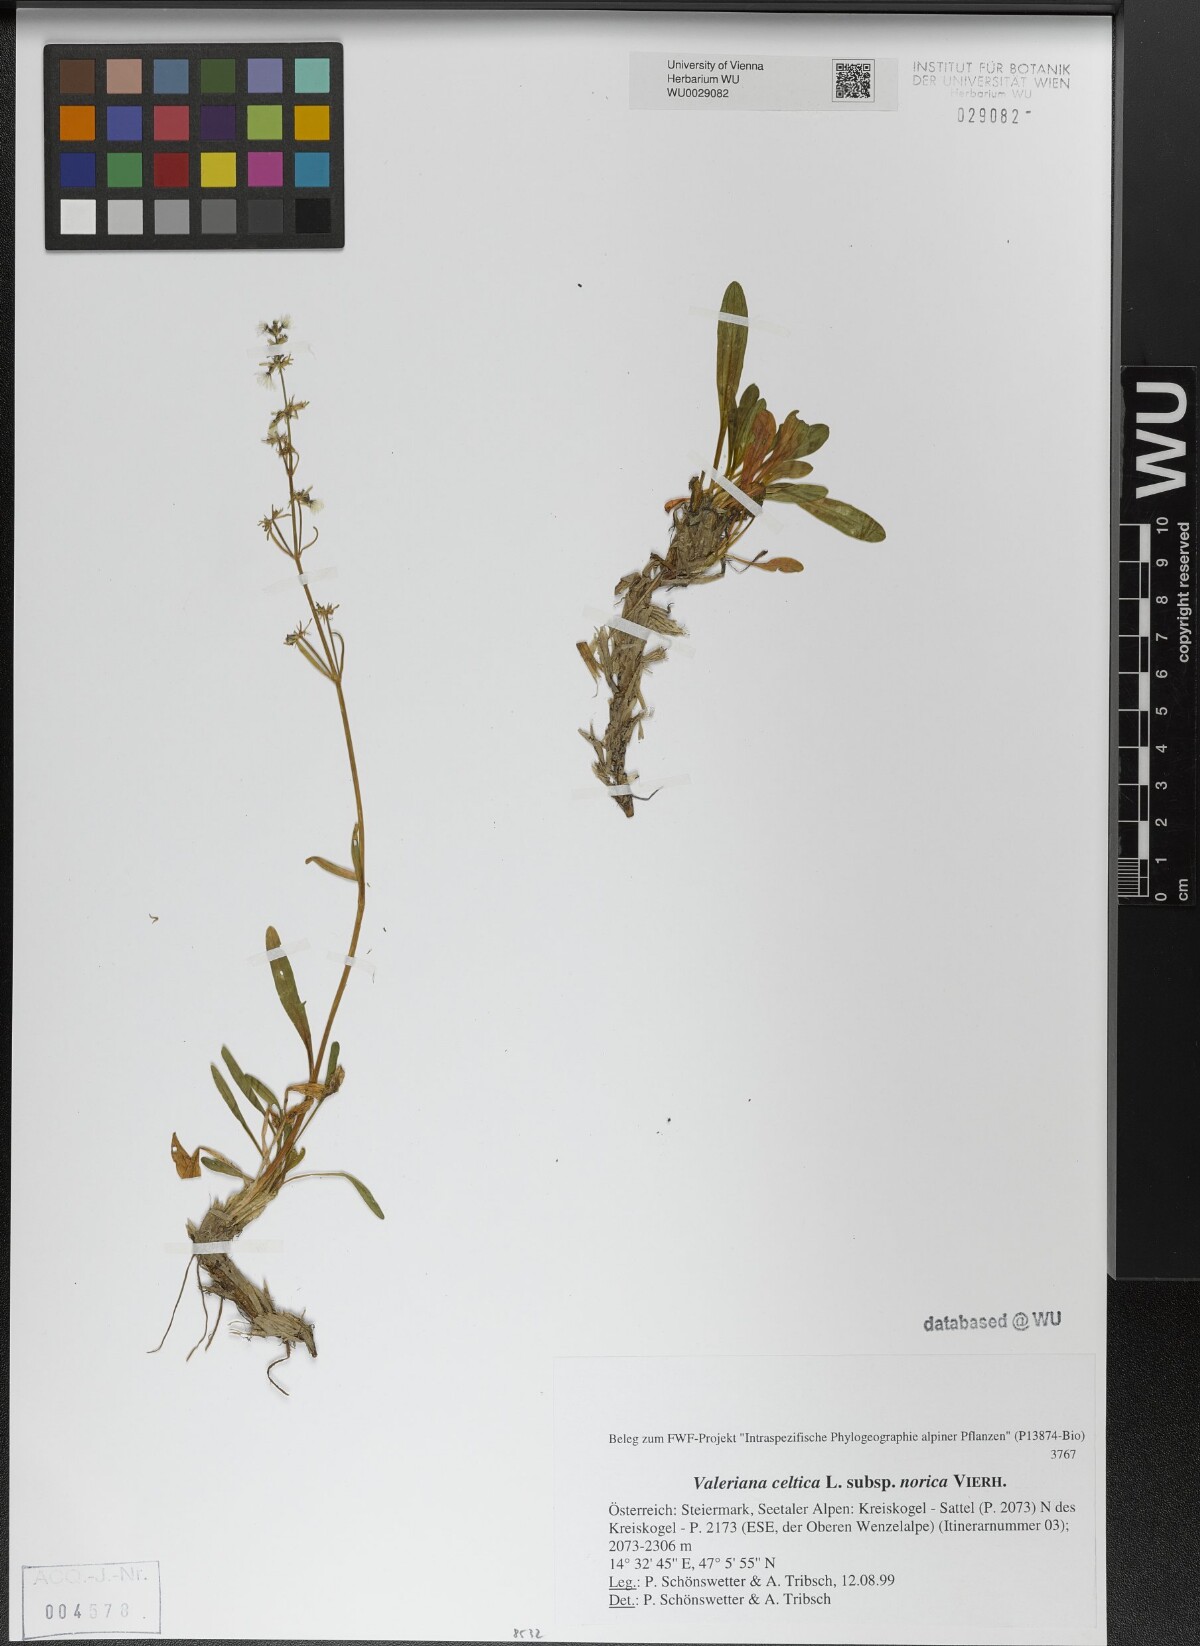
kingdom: Plantae
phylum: Tracheophyta
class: Magnoliopsida
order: Dipsacales
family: Caprifoliaceae
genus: Valeriana
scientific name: Valeriana celtica
